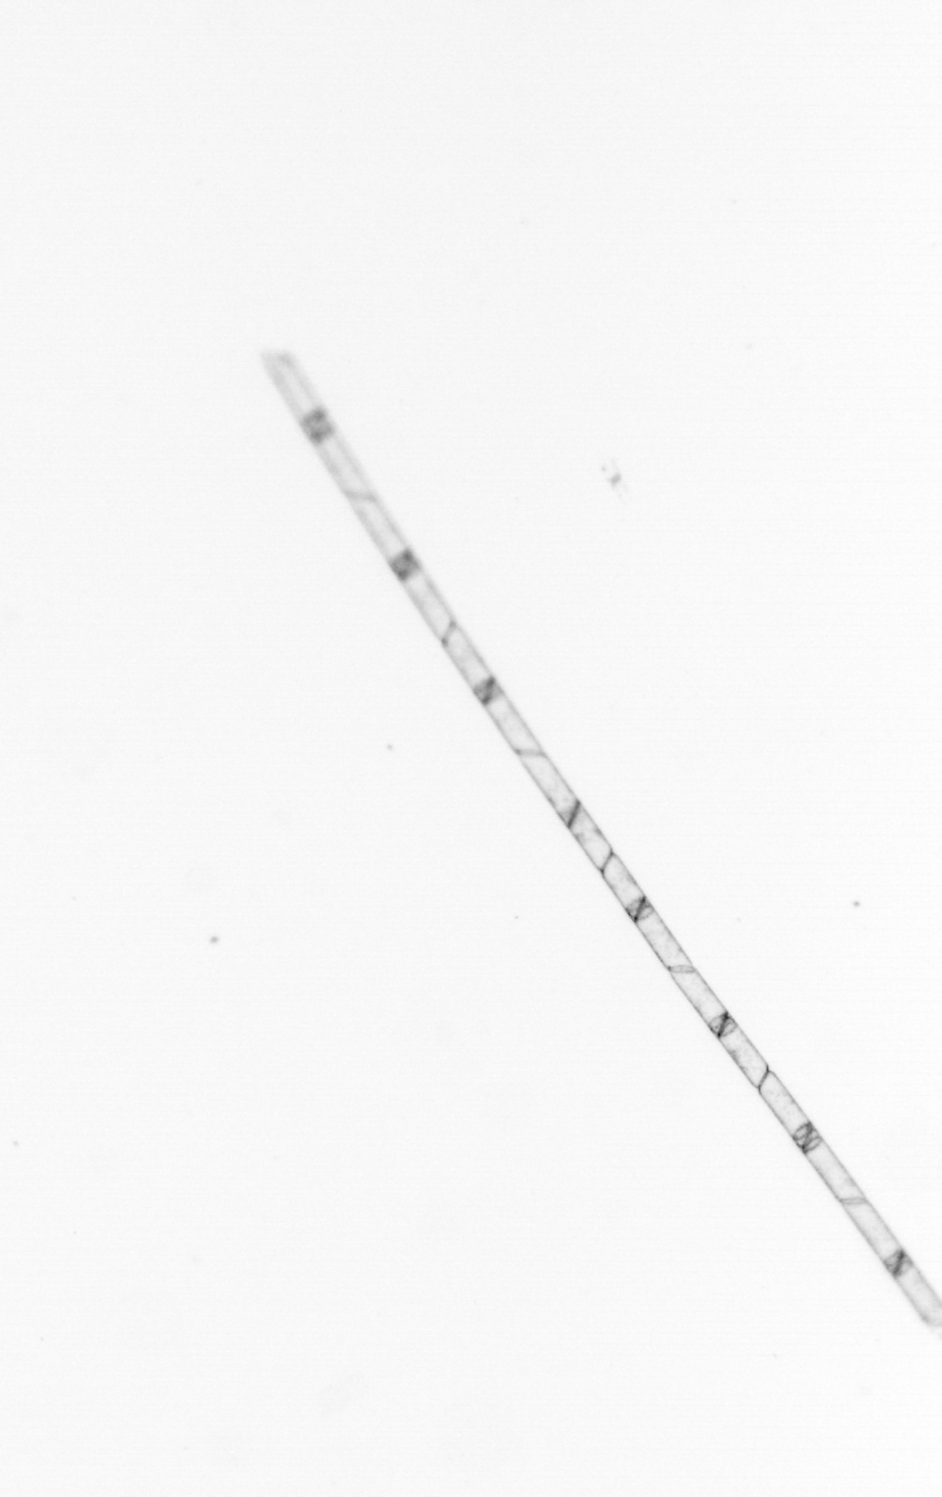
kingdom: Chromista
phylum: Ochrophyta
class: Bacillariophyceae
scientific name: Bacillariophyceae
